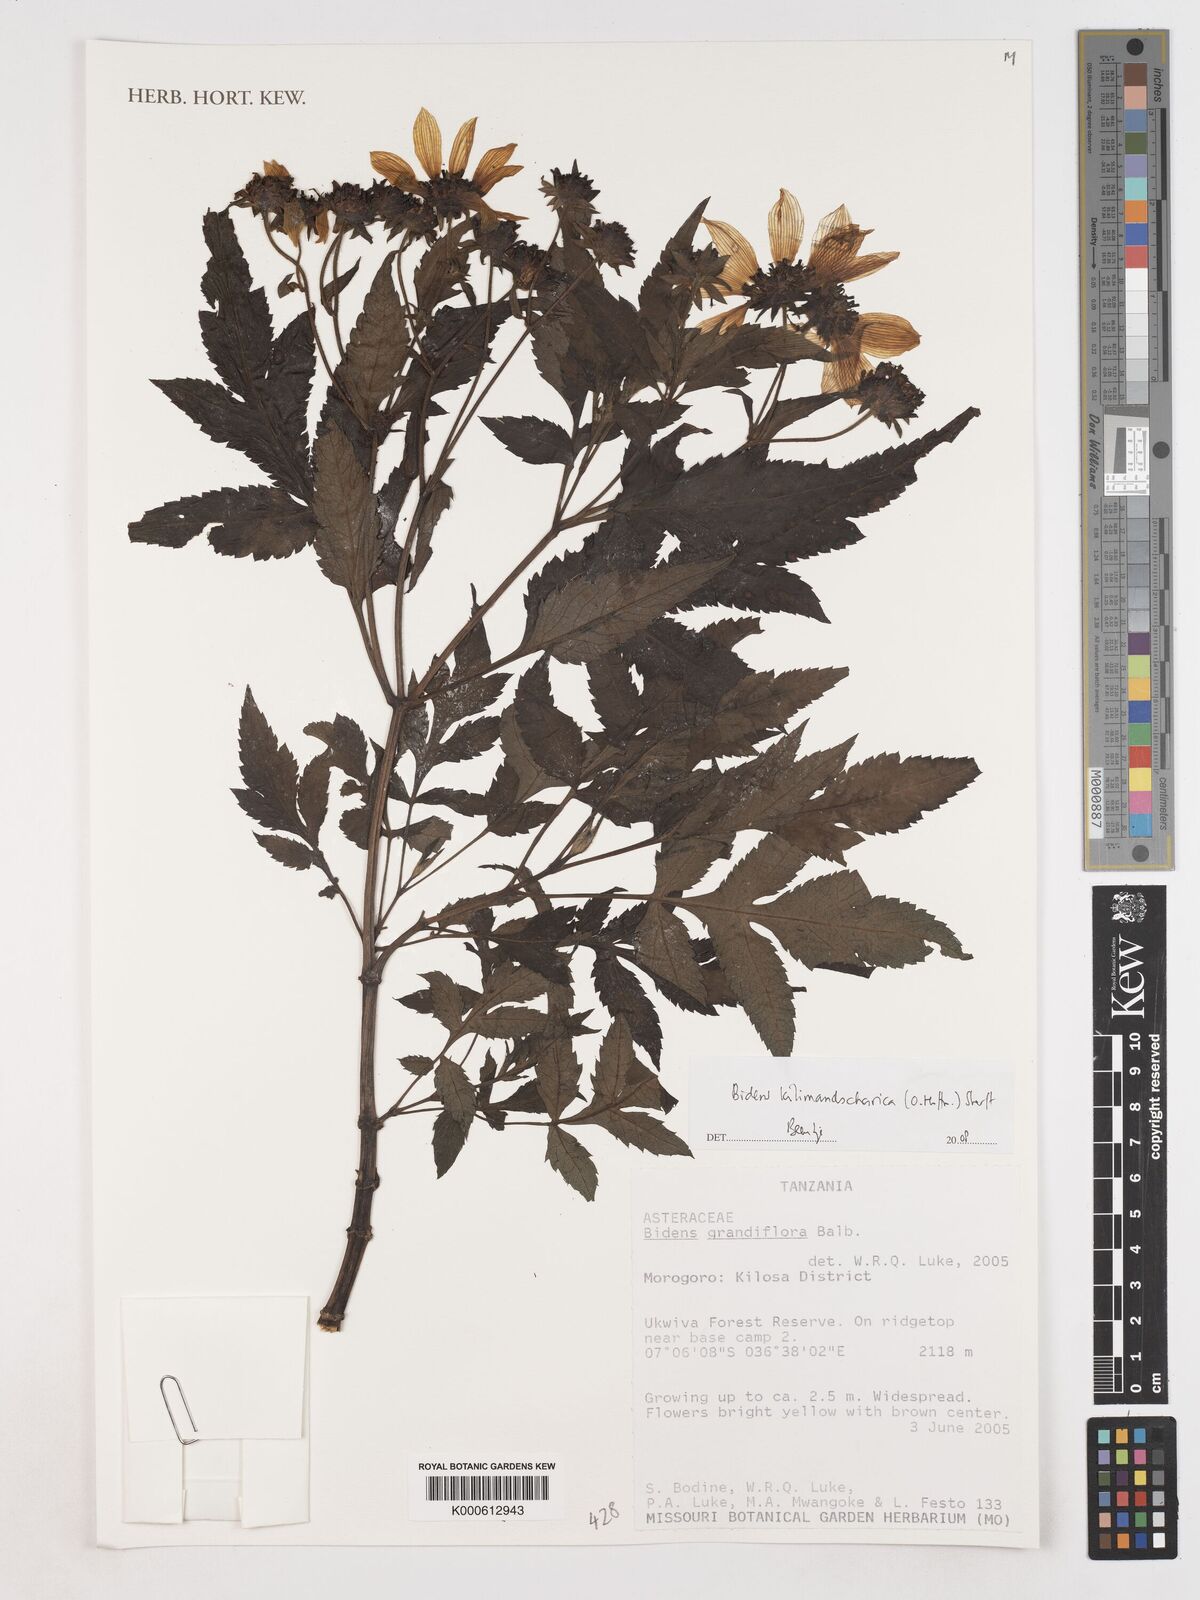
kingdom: Plantae
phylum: Tracheophyta
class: Magnoliopsida
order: Asterales
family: Asteraceae
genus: Bidens
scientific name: Bidens kilimandscharica
